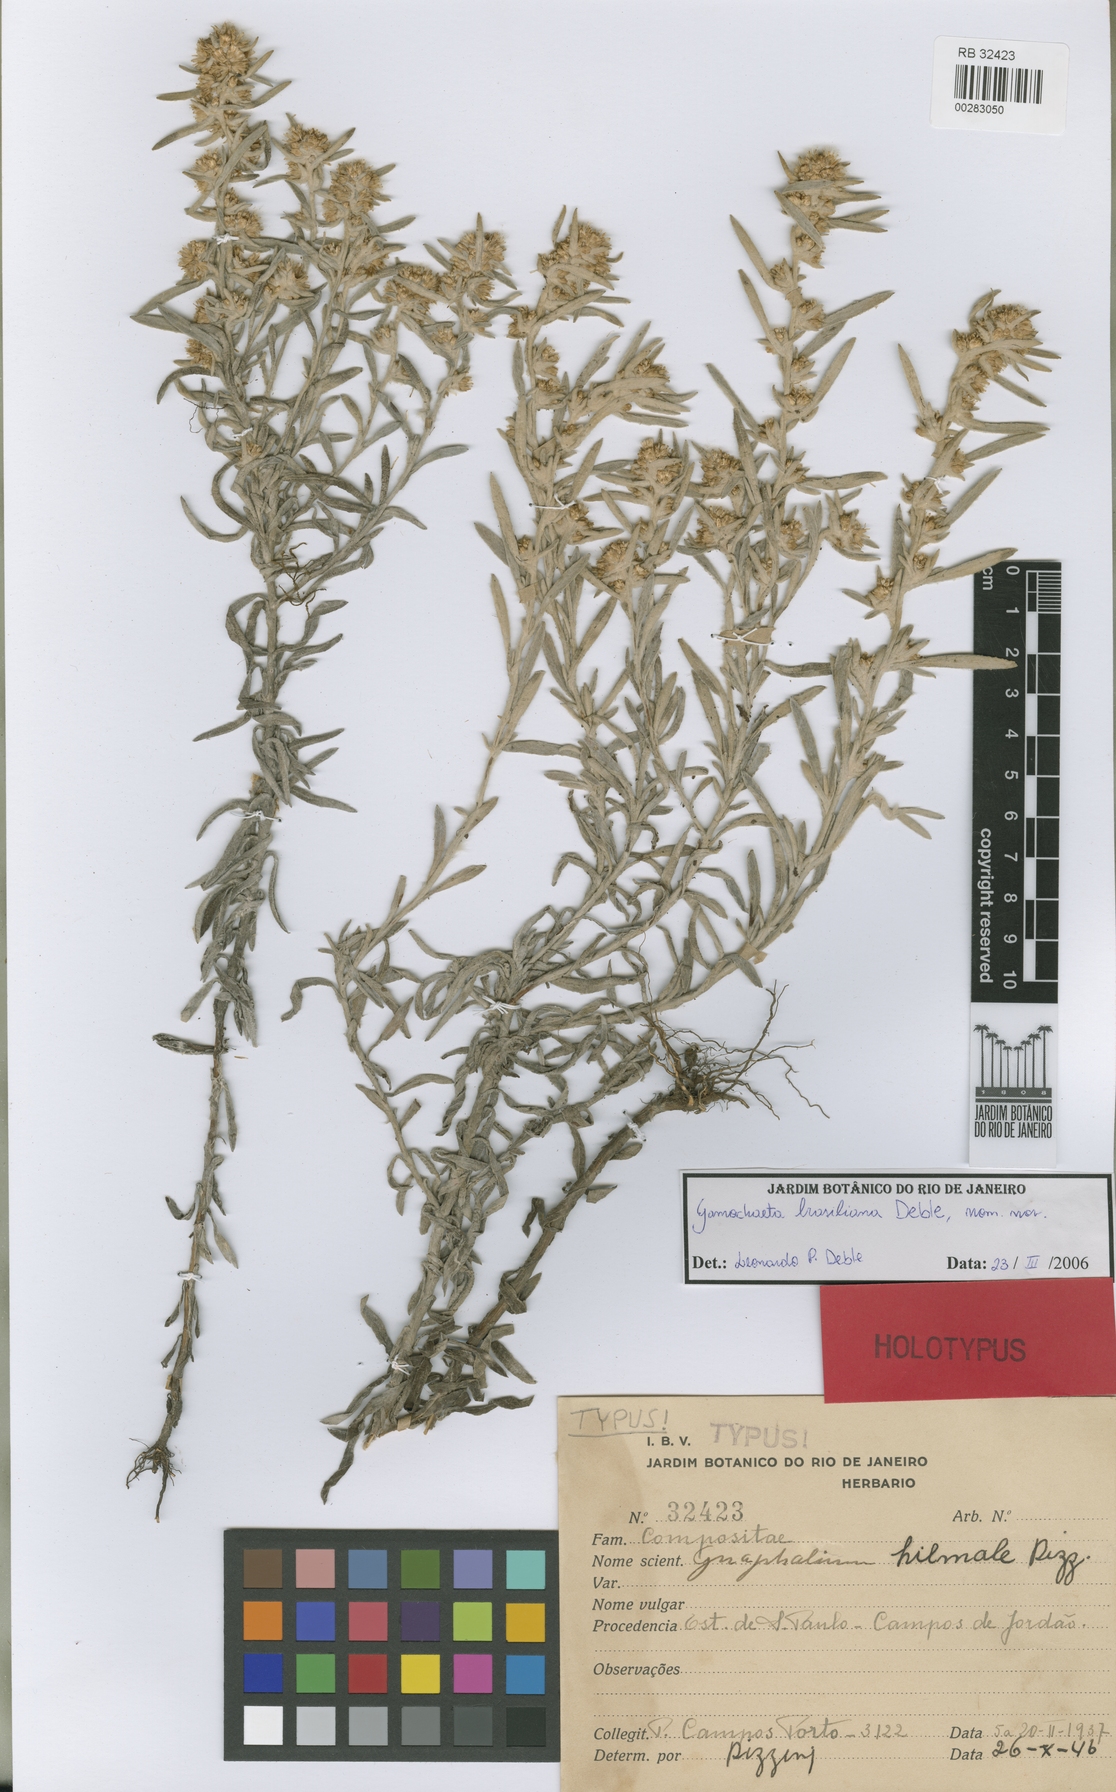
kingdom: Plantae
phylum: Tracheophyta
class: Magnoliopsida
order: Asterales
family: Asteraceae
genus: Gamochaeta
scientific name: Gamochaeta brasiliana
